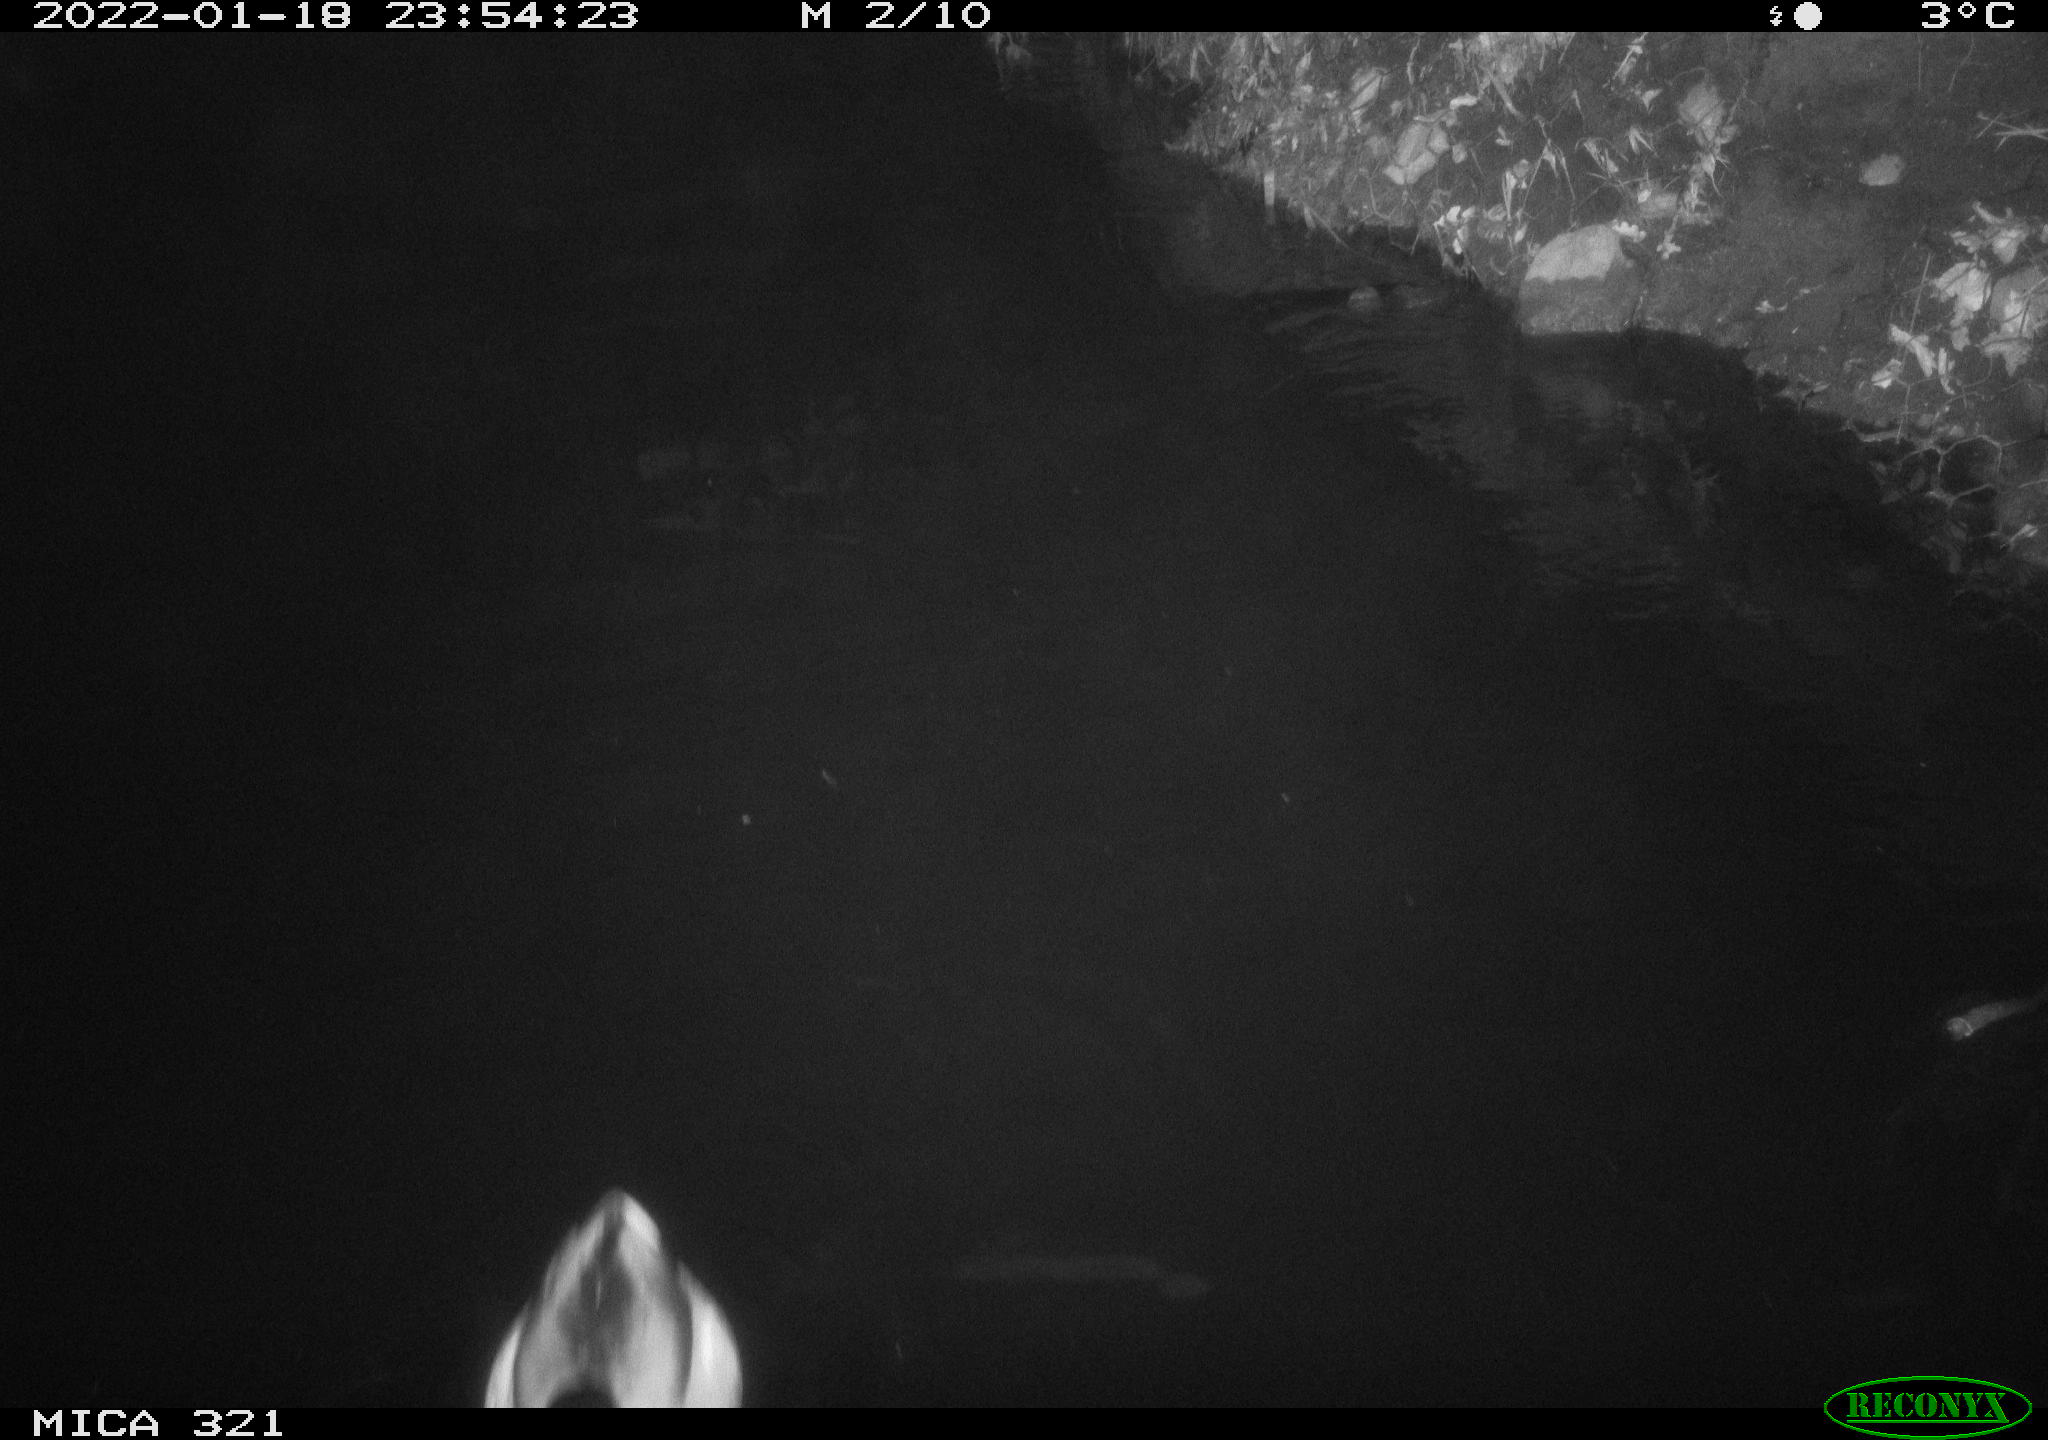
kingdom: Animalia
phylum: Chordata
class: Aves
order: Anseriformes
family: Anatidae
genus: Anas
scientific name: Anas
